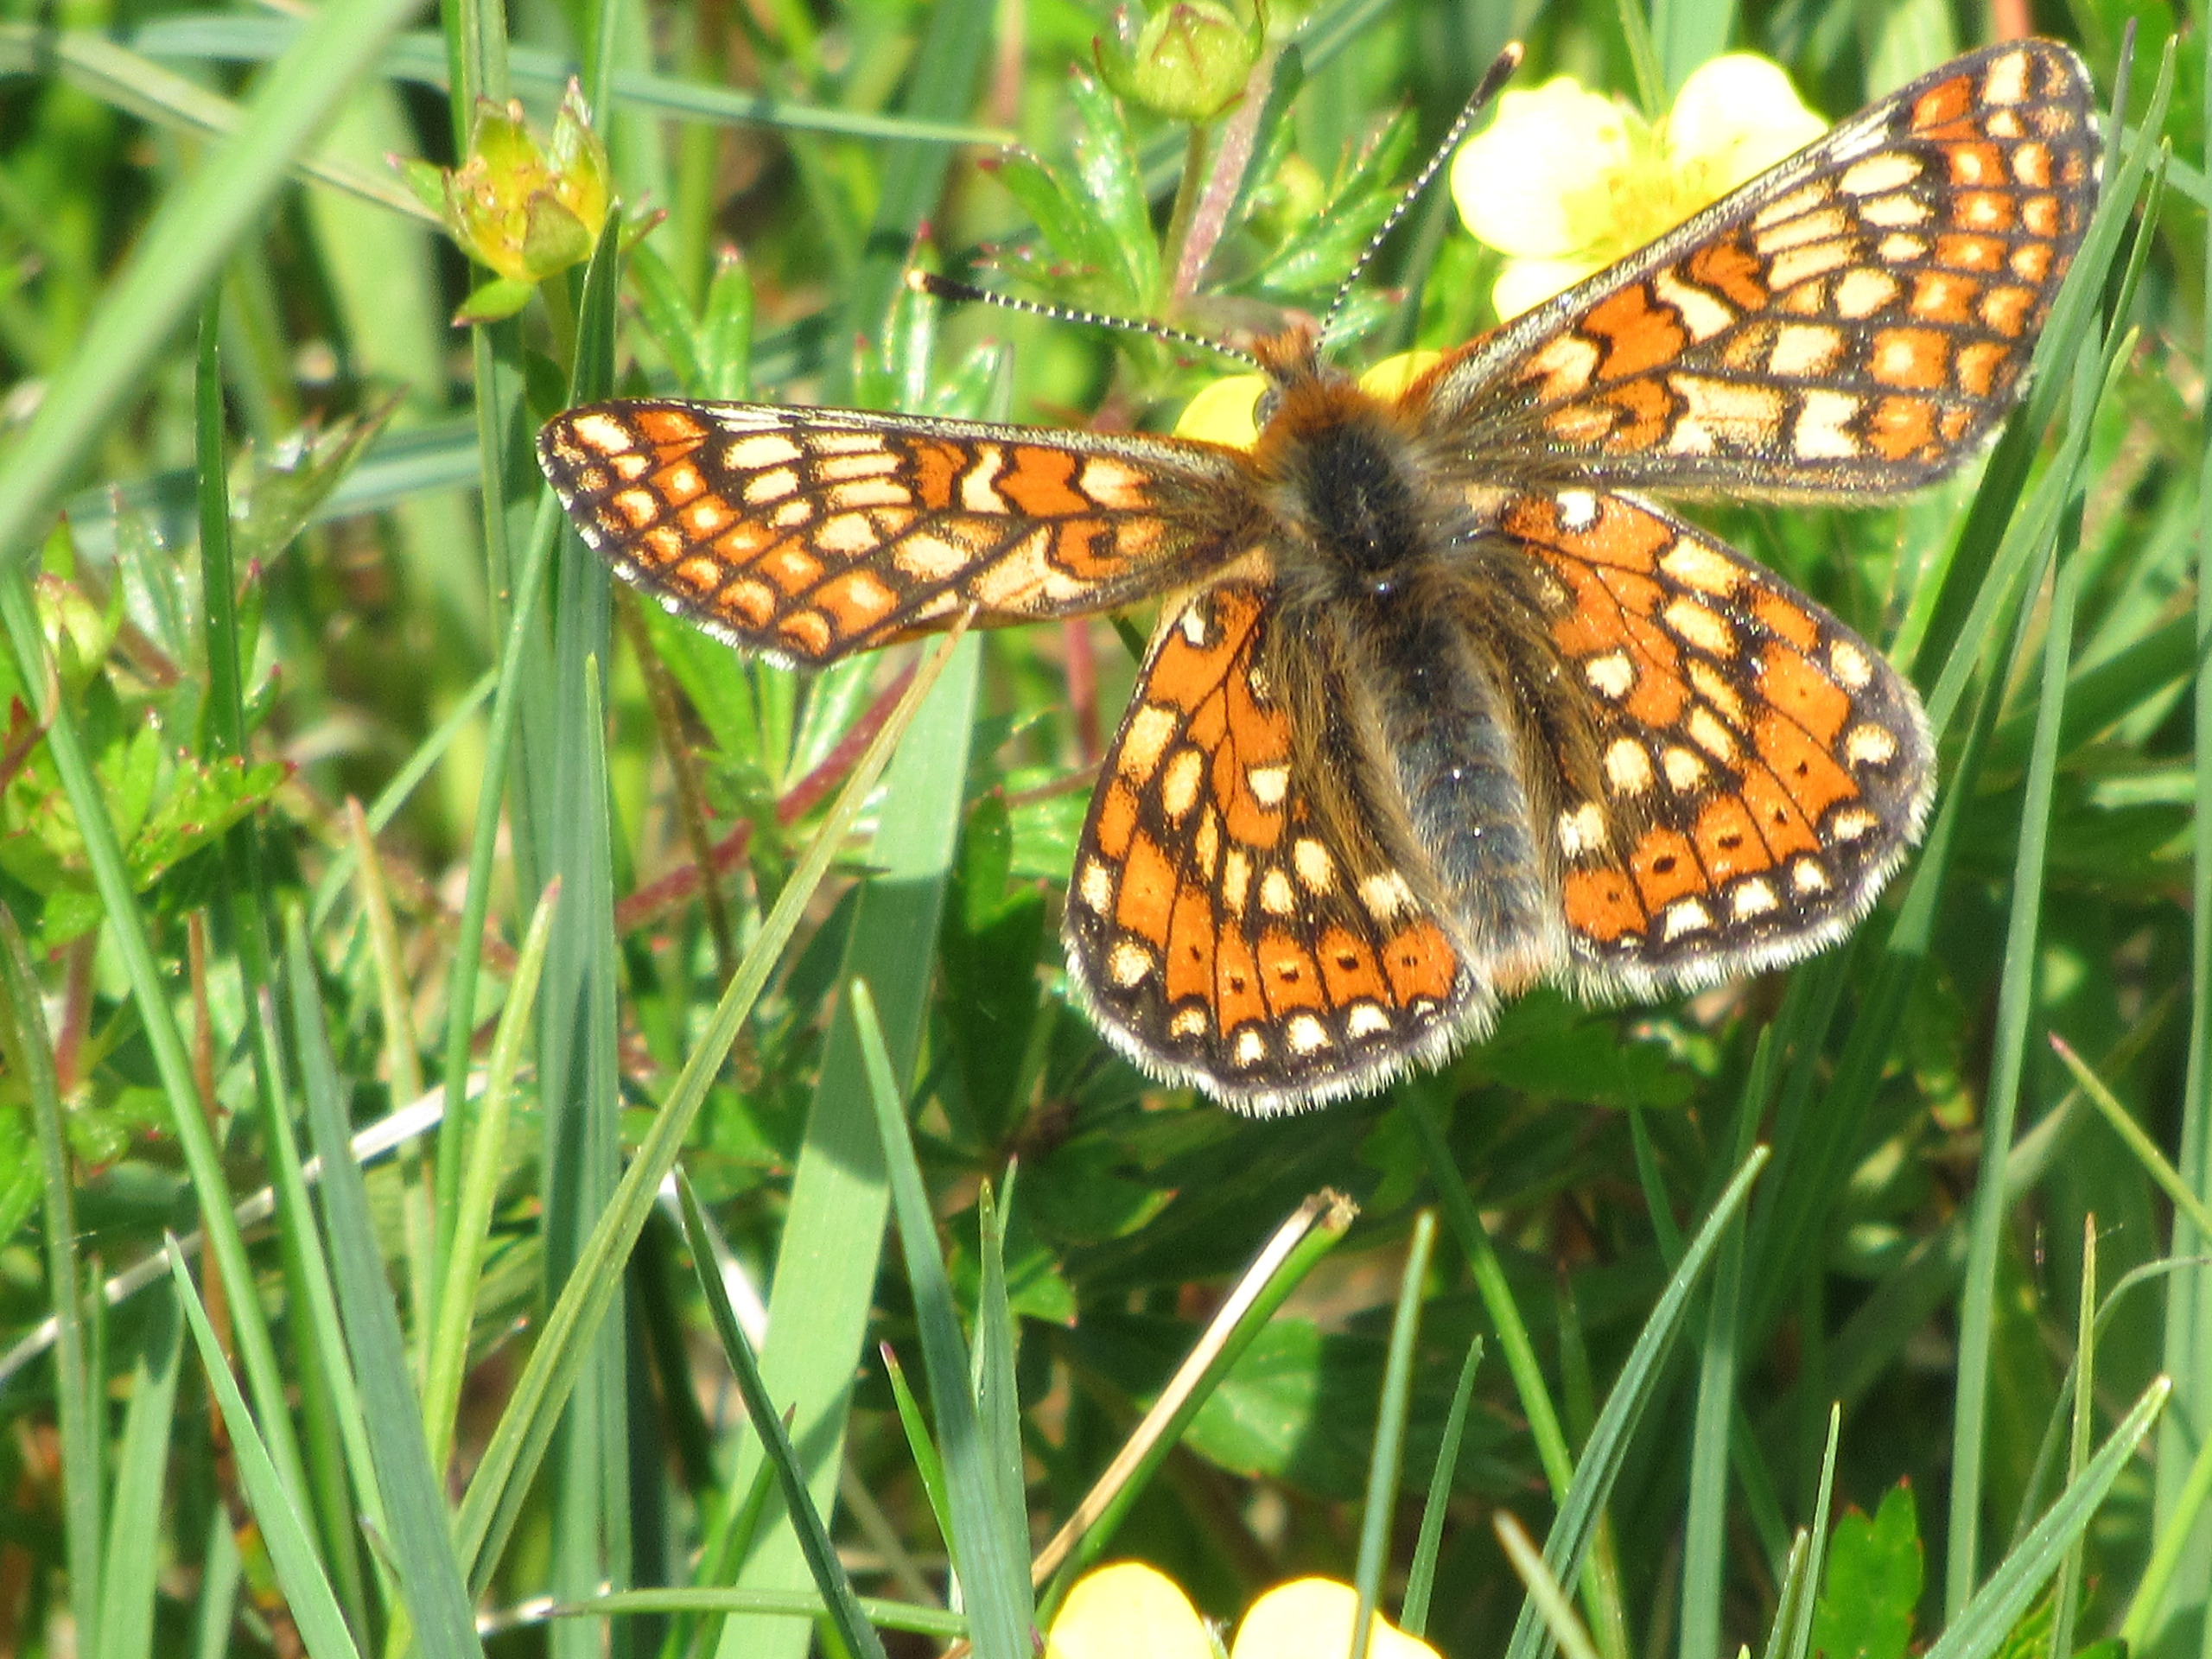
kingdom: Animalia
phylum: Arthropoda
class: Insecta
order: Lepidoptera
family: Nymphalidae
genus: Euphydryas
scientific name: Euphydryas aurinia
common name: Hedepletvinge
